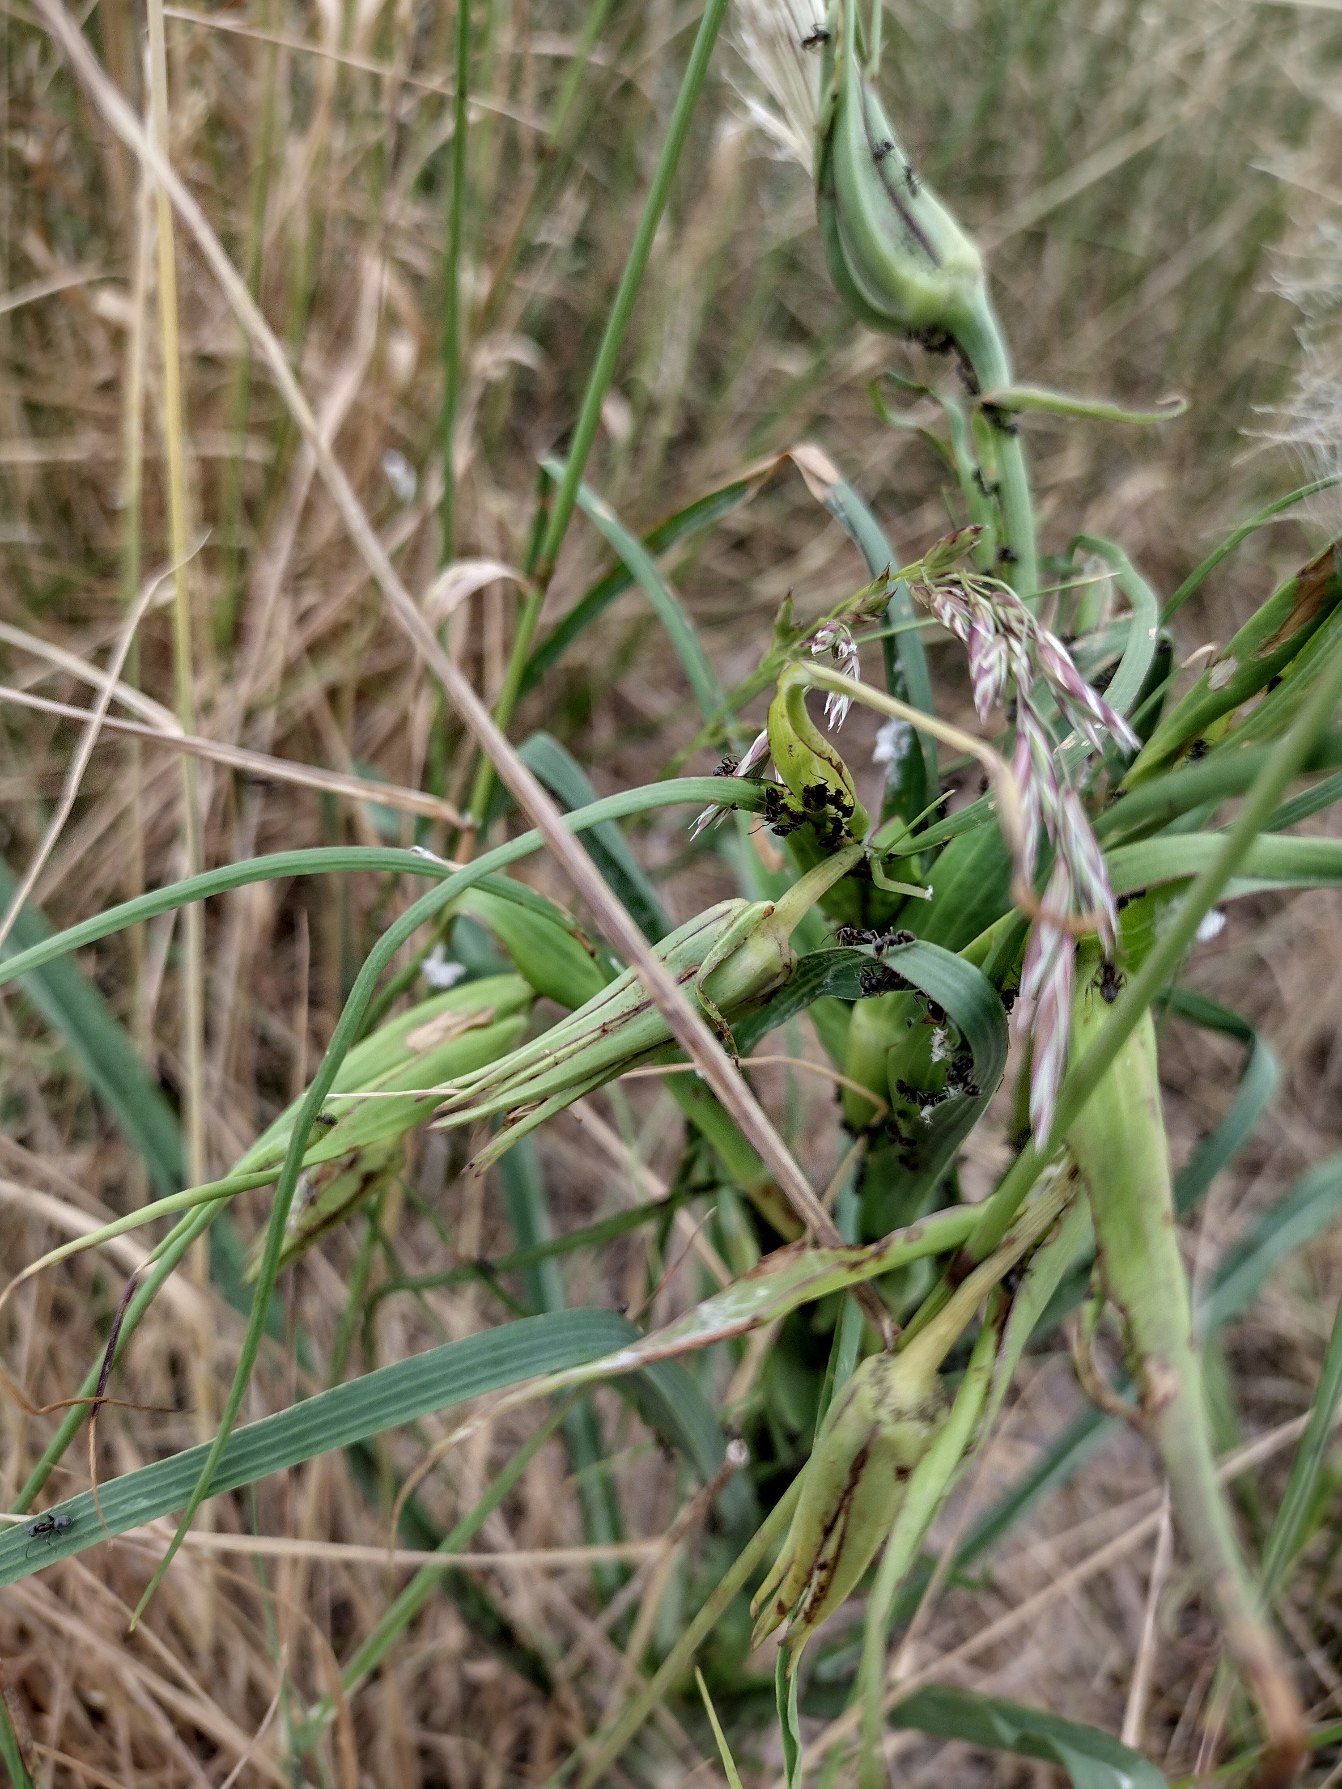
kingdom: Plantae
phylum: Tracheophyta
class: Magnoliopsida
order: Asterales
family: Asteraceae
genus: Tragopogon
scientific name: Tragopogon pratensis
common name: Gedeskæg
